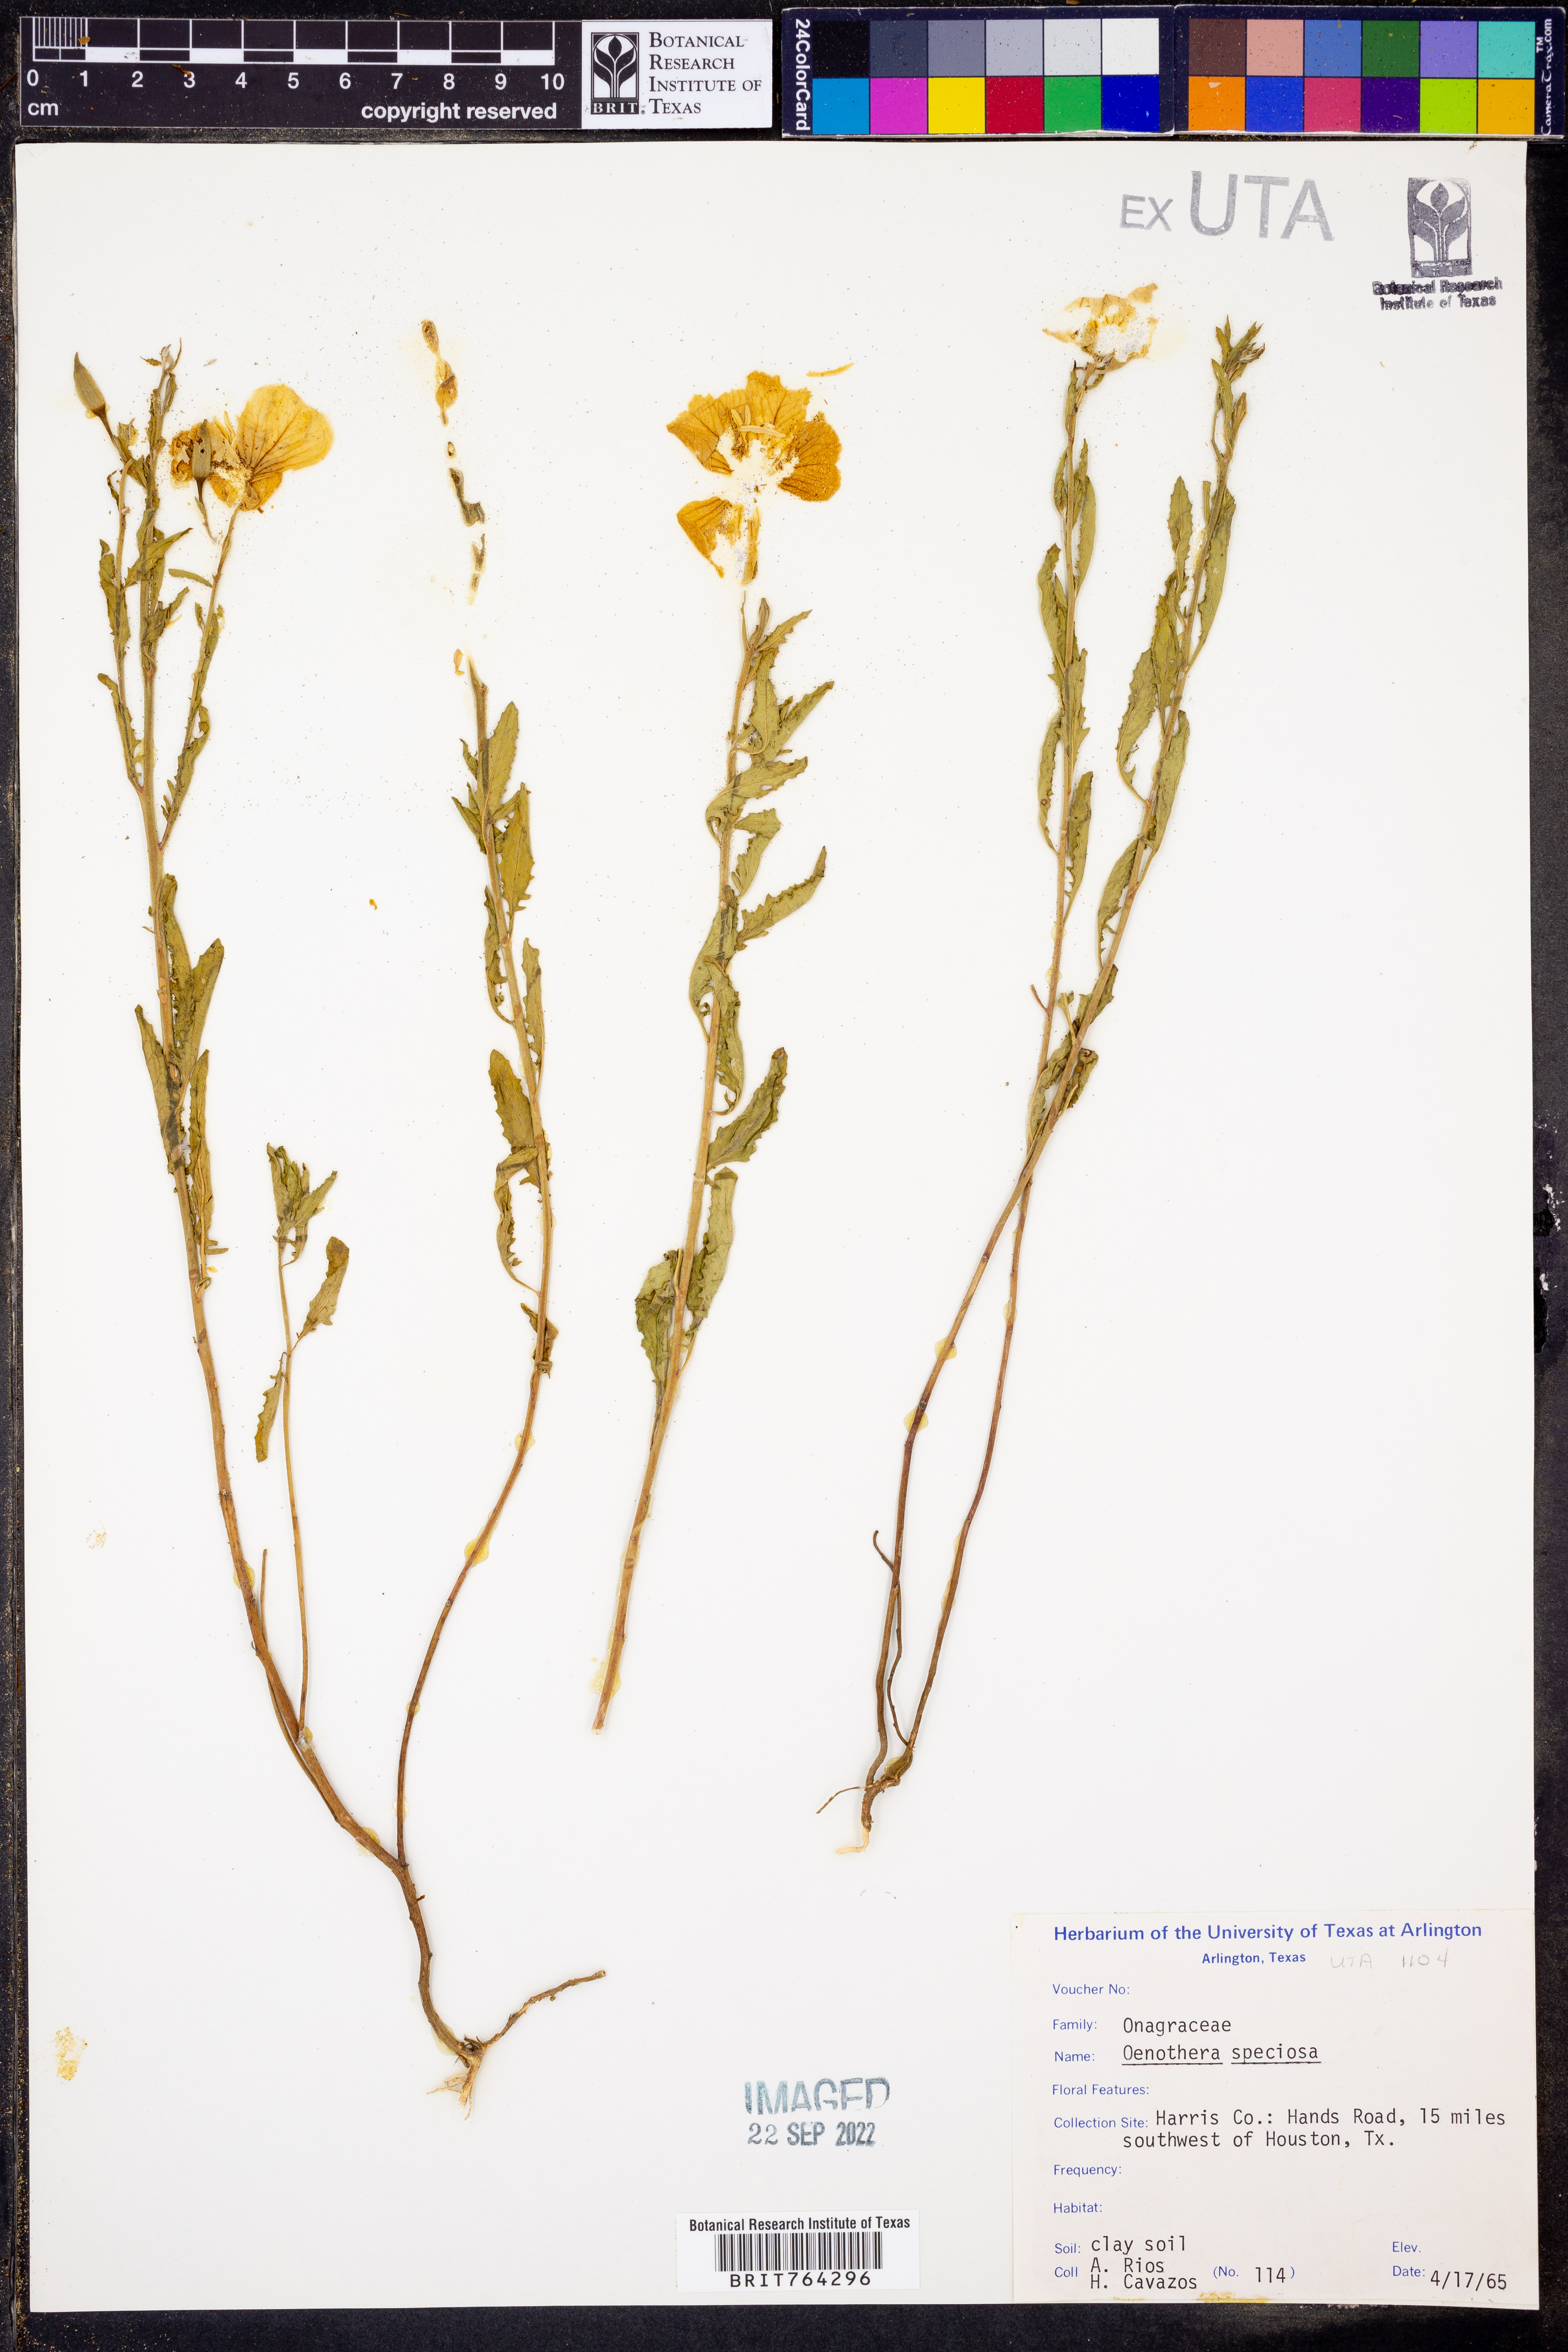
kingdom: Plantae
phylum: Tracheophyta
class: Magnoliopsida
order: Myrtales
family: Onagraceae
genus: Oenothera
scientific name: Oenothera speciosa
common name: White evening-primrose
